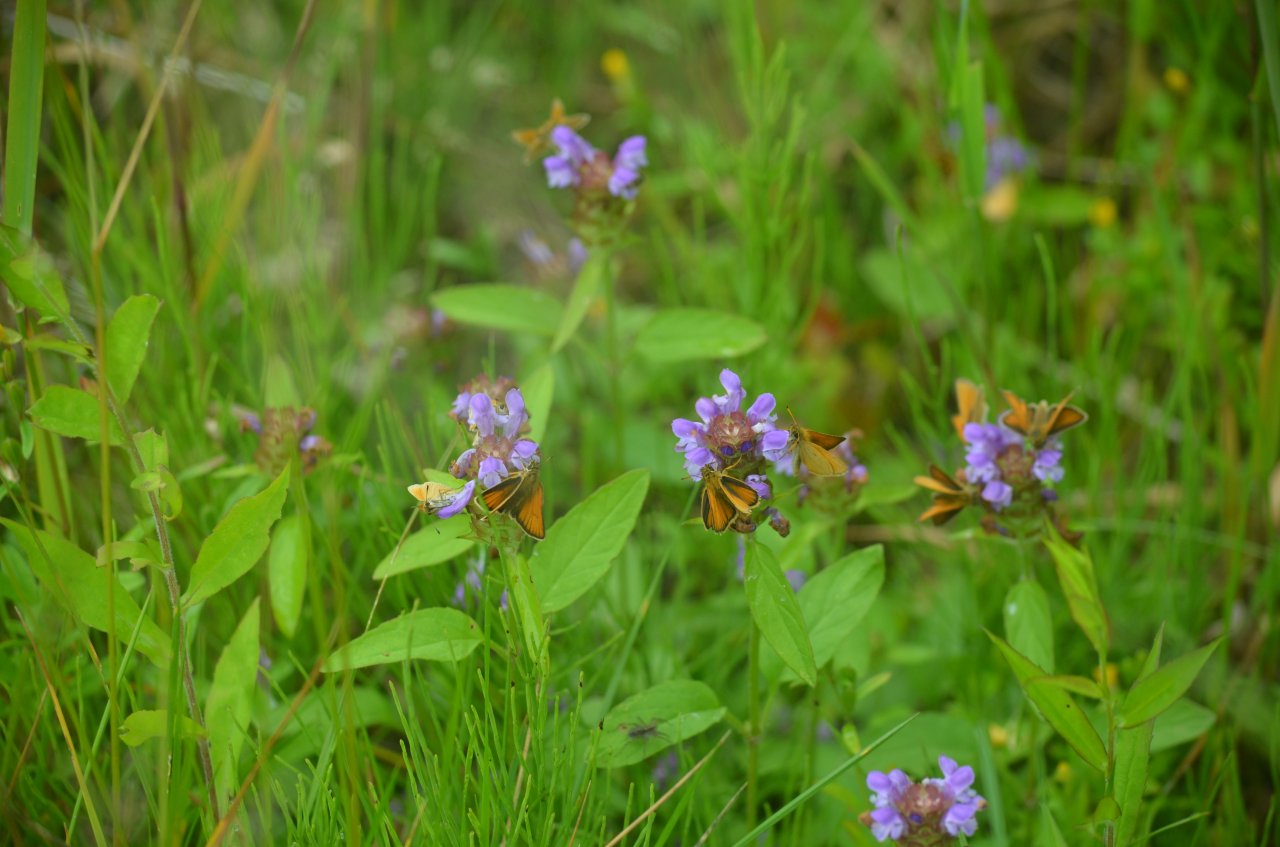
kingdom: Animalia
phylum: Arthropoda
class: Insecta
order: Lepidoptera
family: Hesperiidae
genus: Thymelicus
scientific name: Thymelicus lineola
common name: European Skipper
